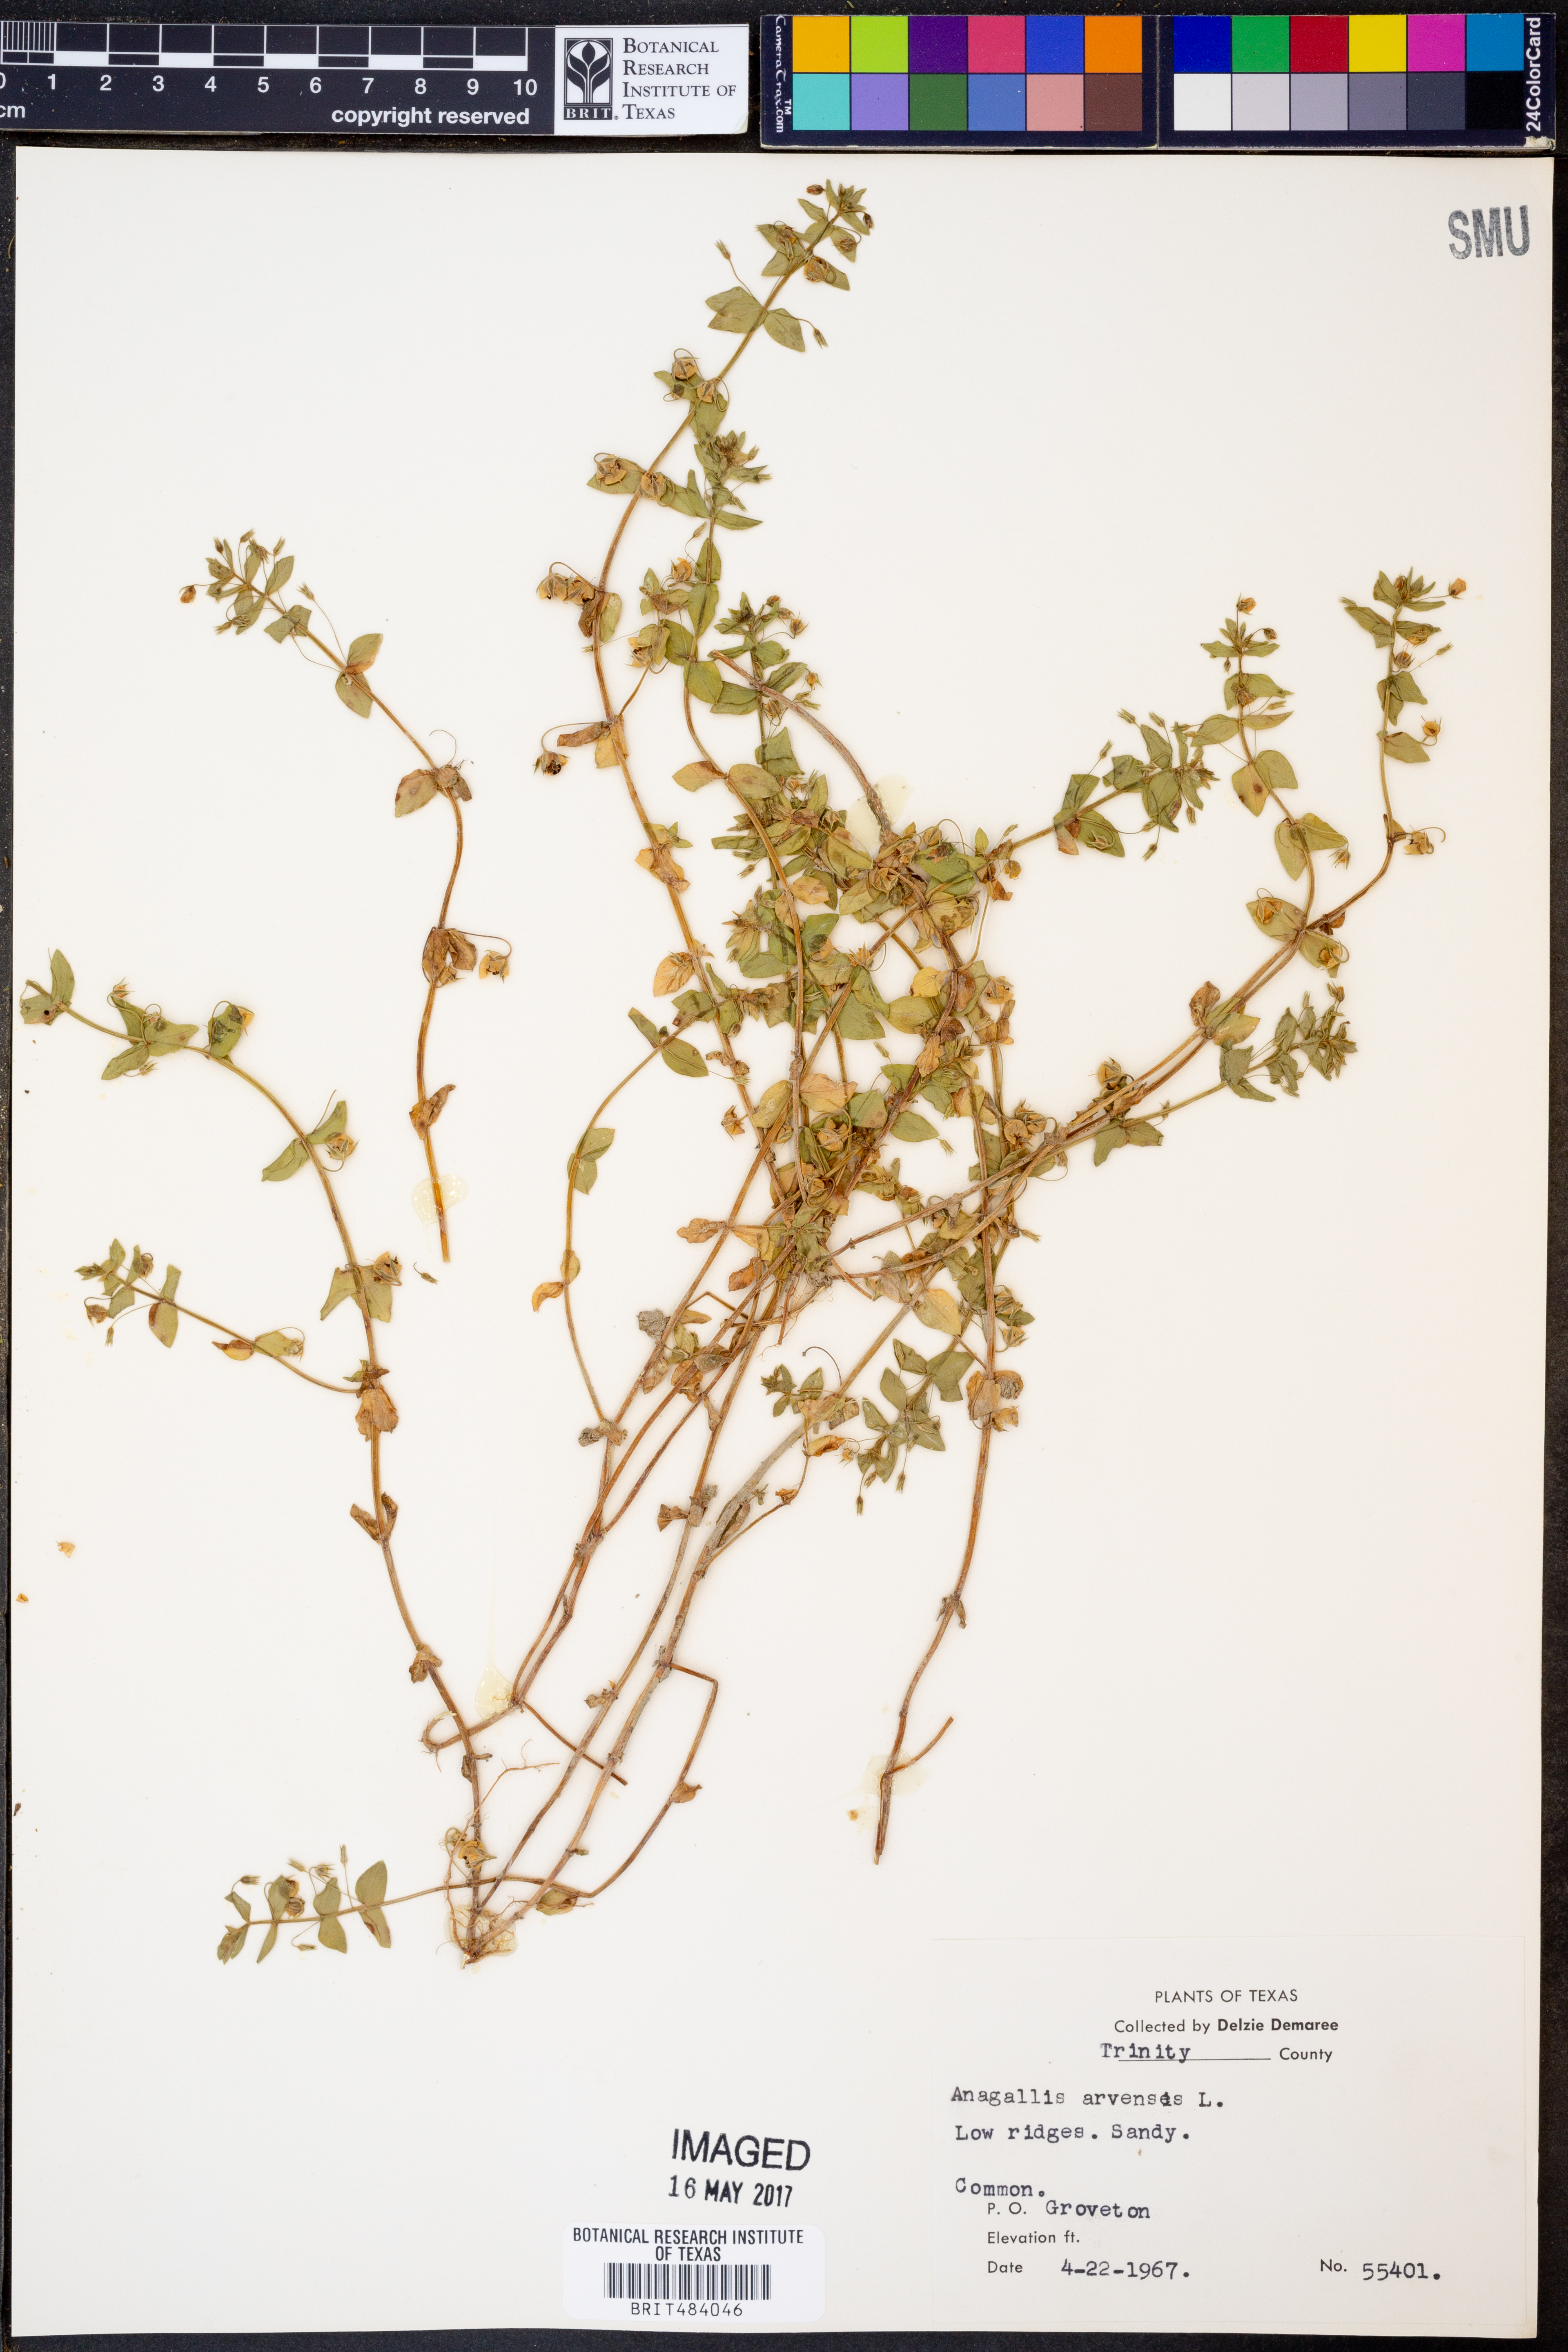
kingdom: Plantae
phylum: Tracheophyta
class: Magnoliopsida
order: Ericales
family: Primulaceae
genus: Lysimachia
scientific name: Lysimachia arvensis
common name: Scarlet pimpernel
